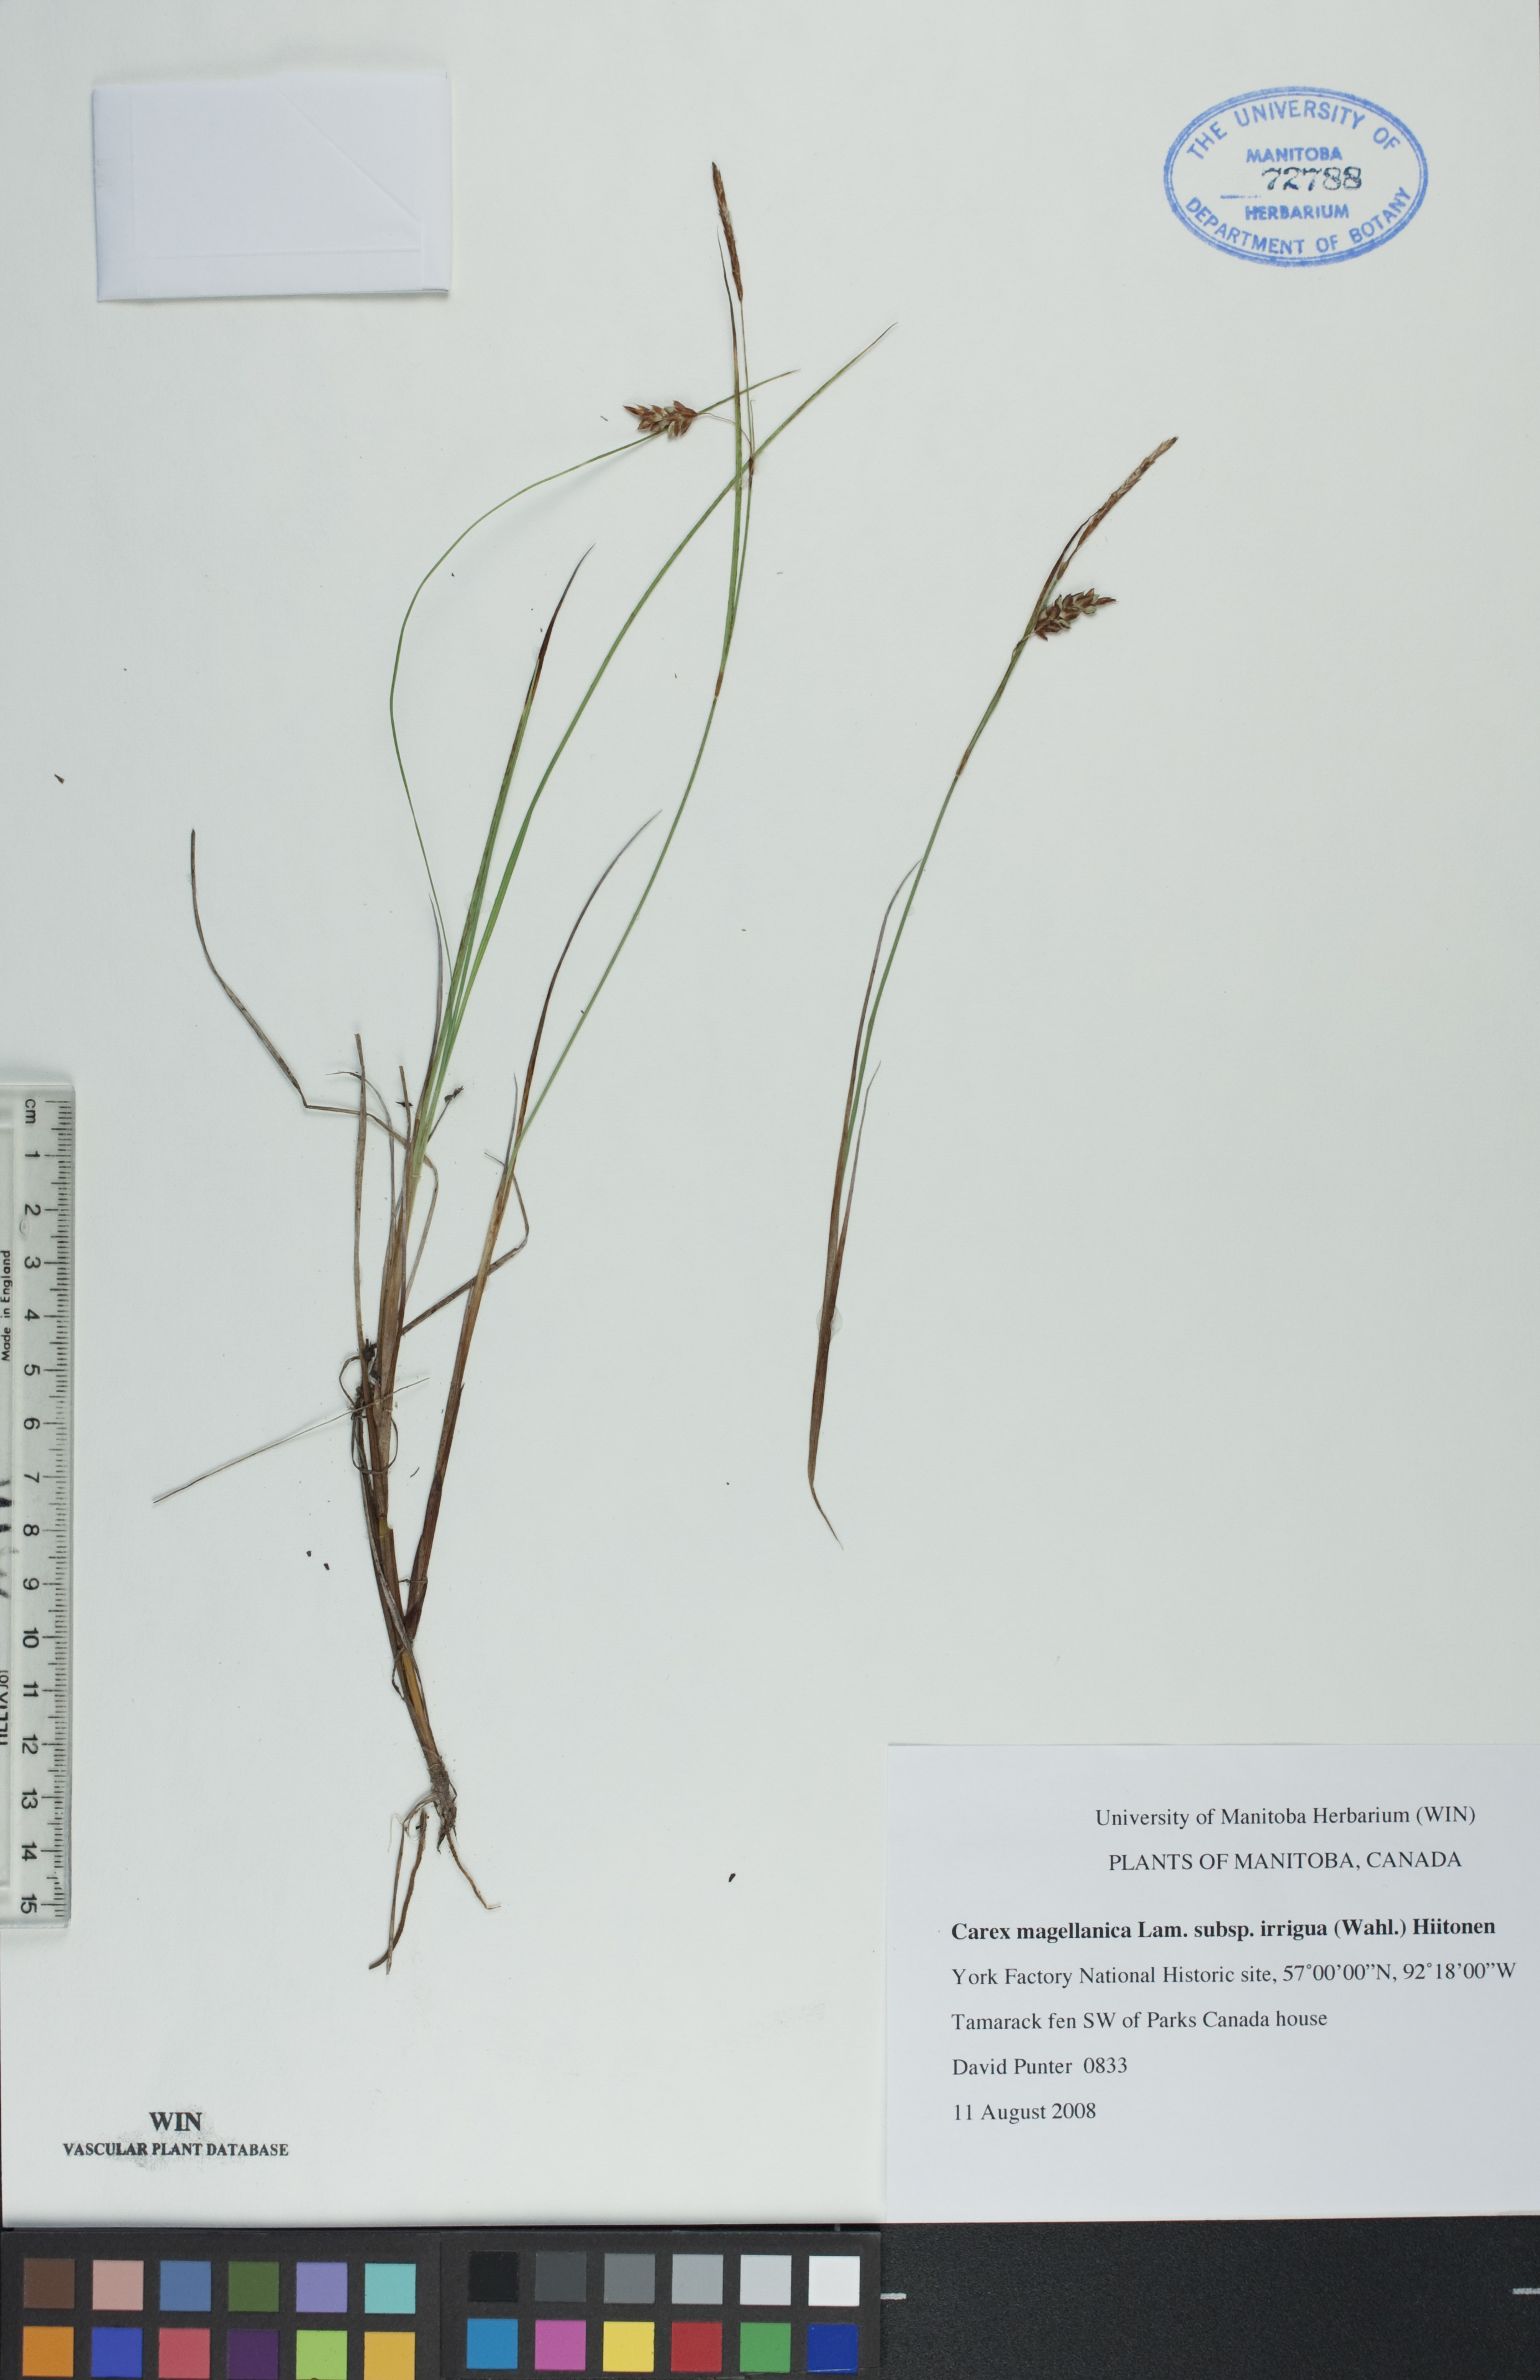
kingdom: Plantae
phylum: Tracheophyta
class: Liliopsida
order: Poales
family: Cyperaceae
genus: Carex
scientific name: Carex magellanica
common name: Bog sedge
